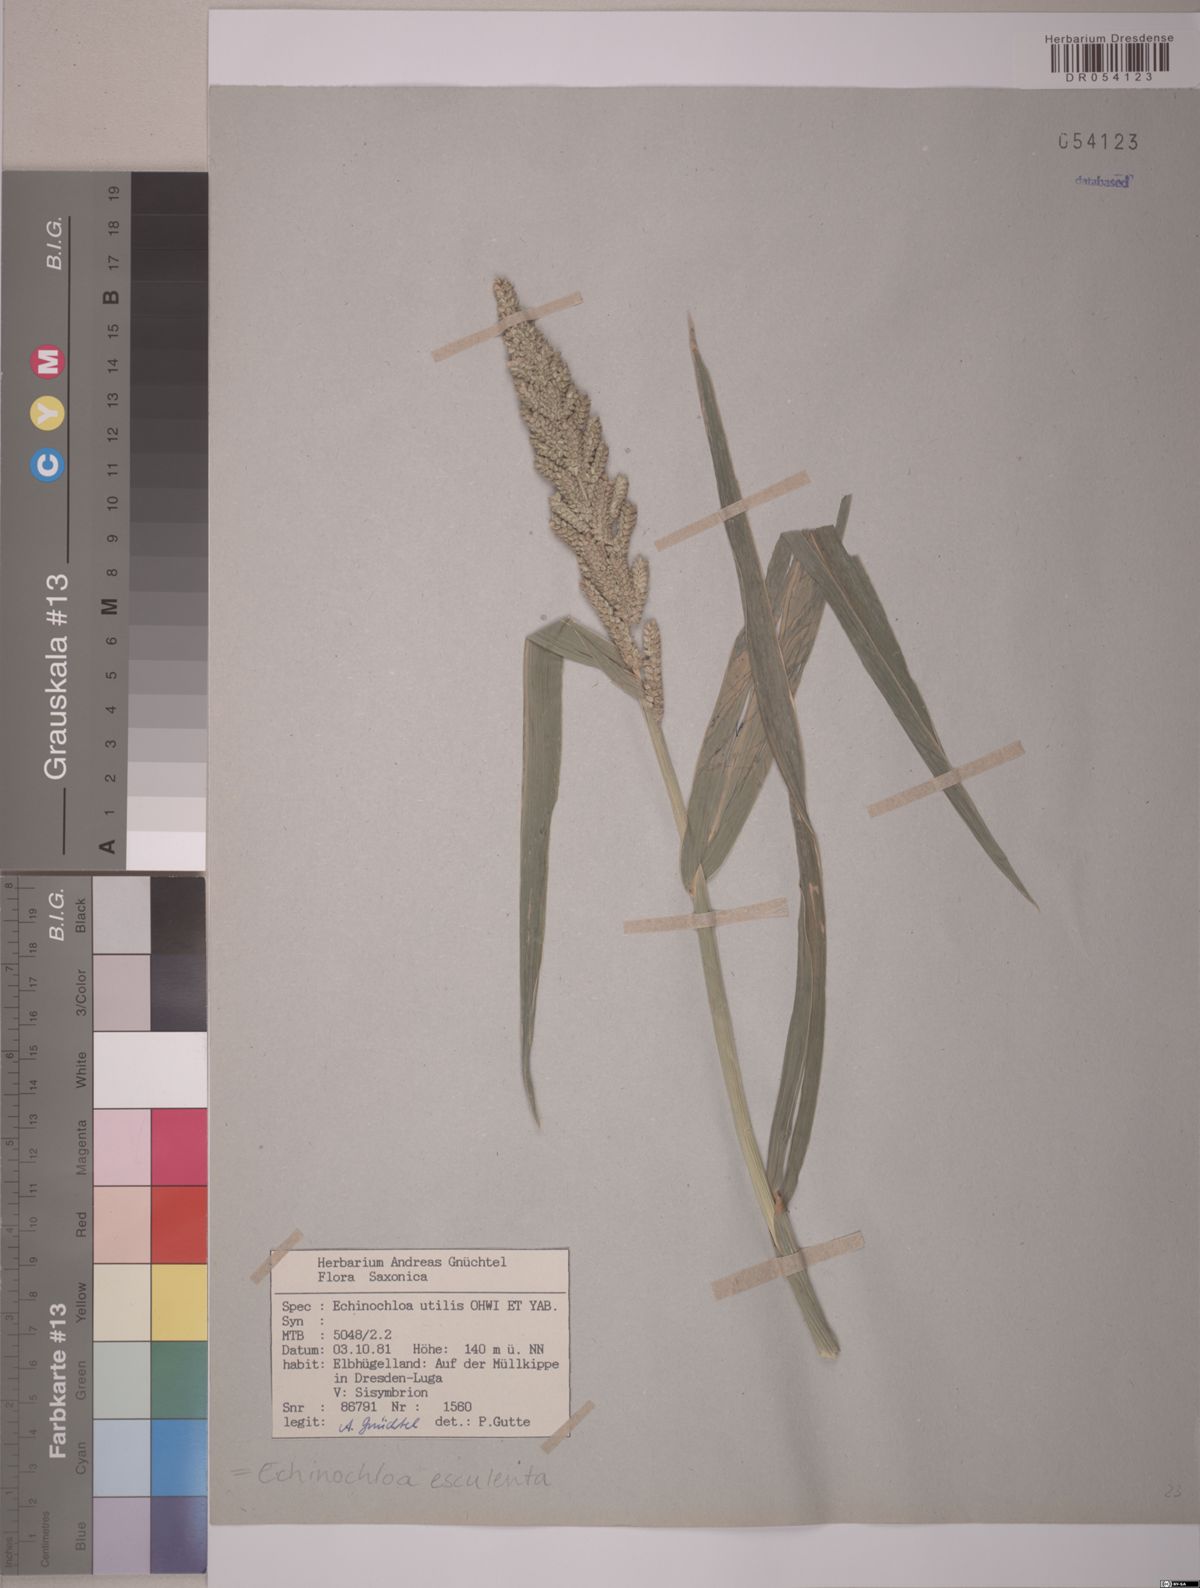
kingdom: Plantae
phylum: Tracheophyta
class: Liliopsida
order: Poales
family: Poaceae
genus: Echinochloa
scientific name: Echinochloa crus-galli
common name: Cockspur
